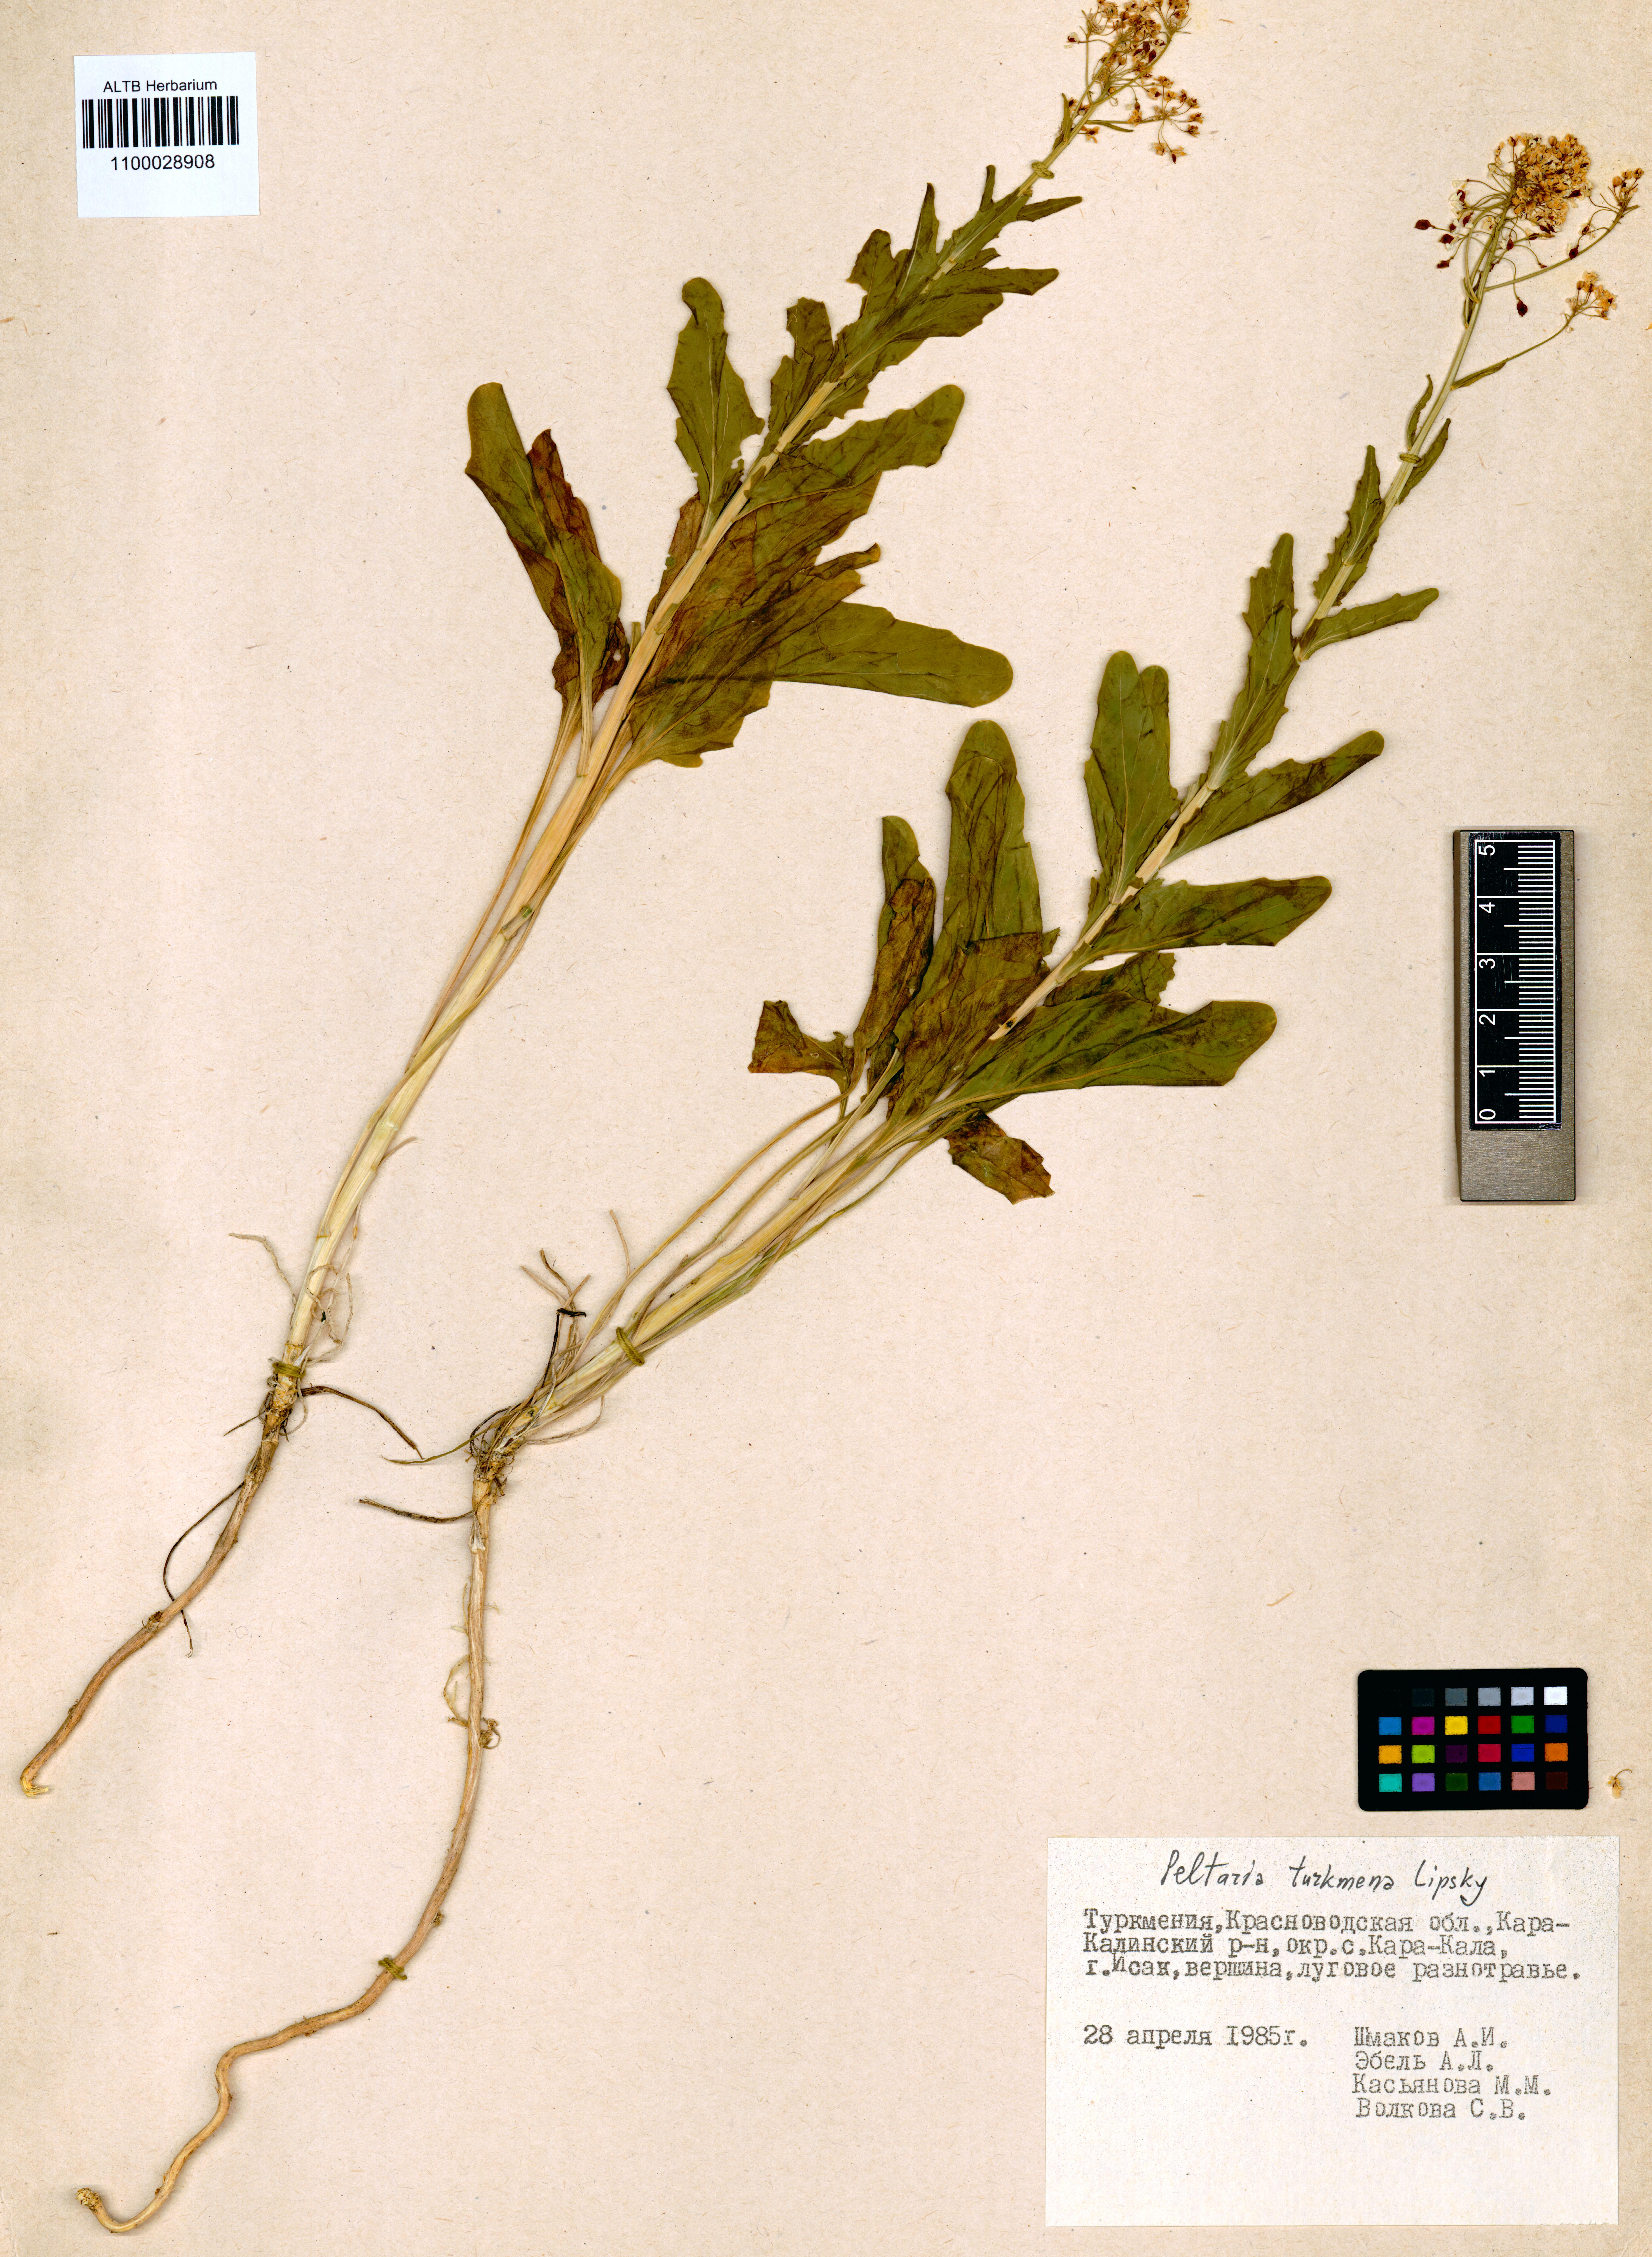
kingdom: Plantae
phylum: Tracheophyta
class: Magnoliopsida
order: Brassicales
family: Brassicaceae
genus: Peltaria
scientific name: Peltaria turkmena
